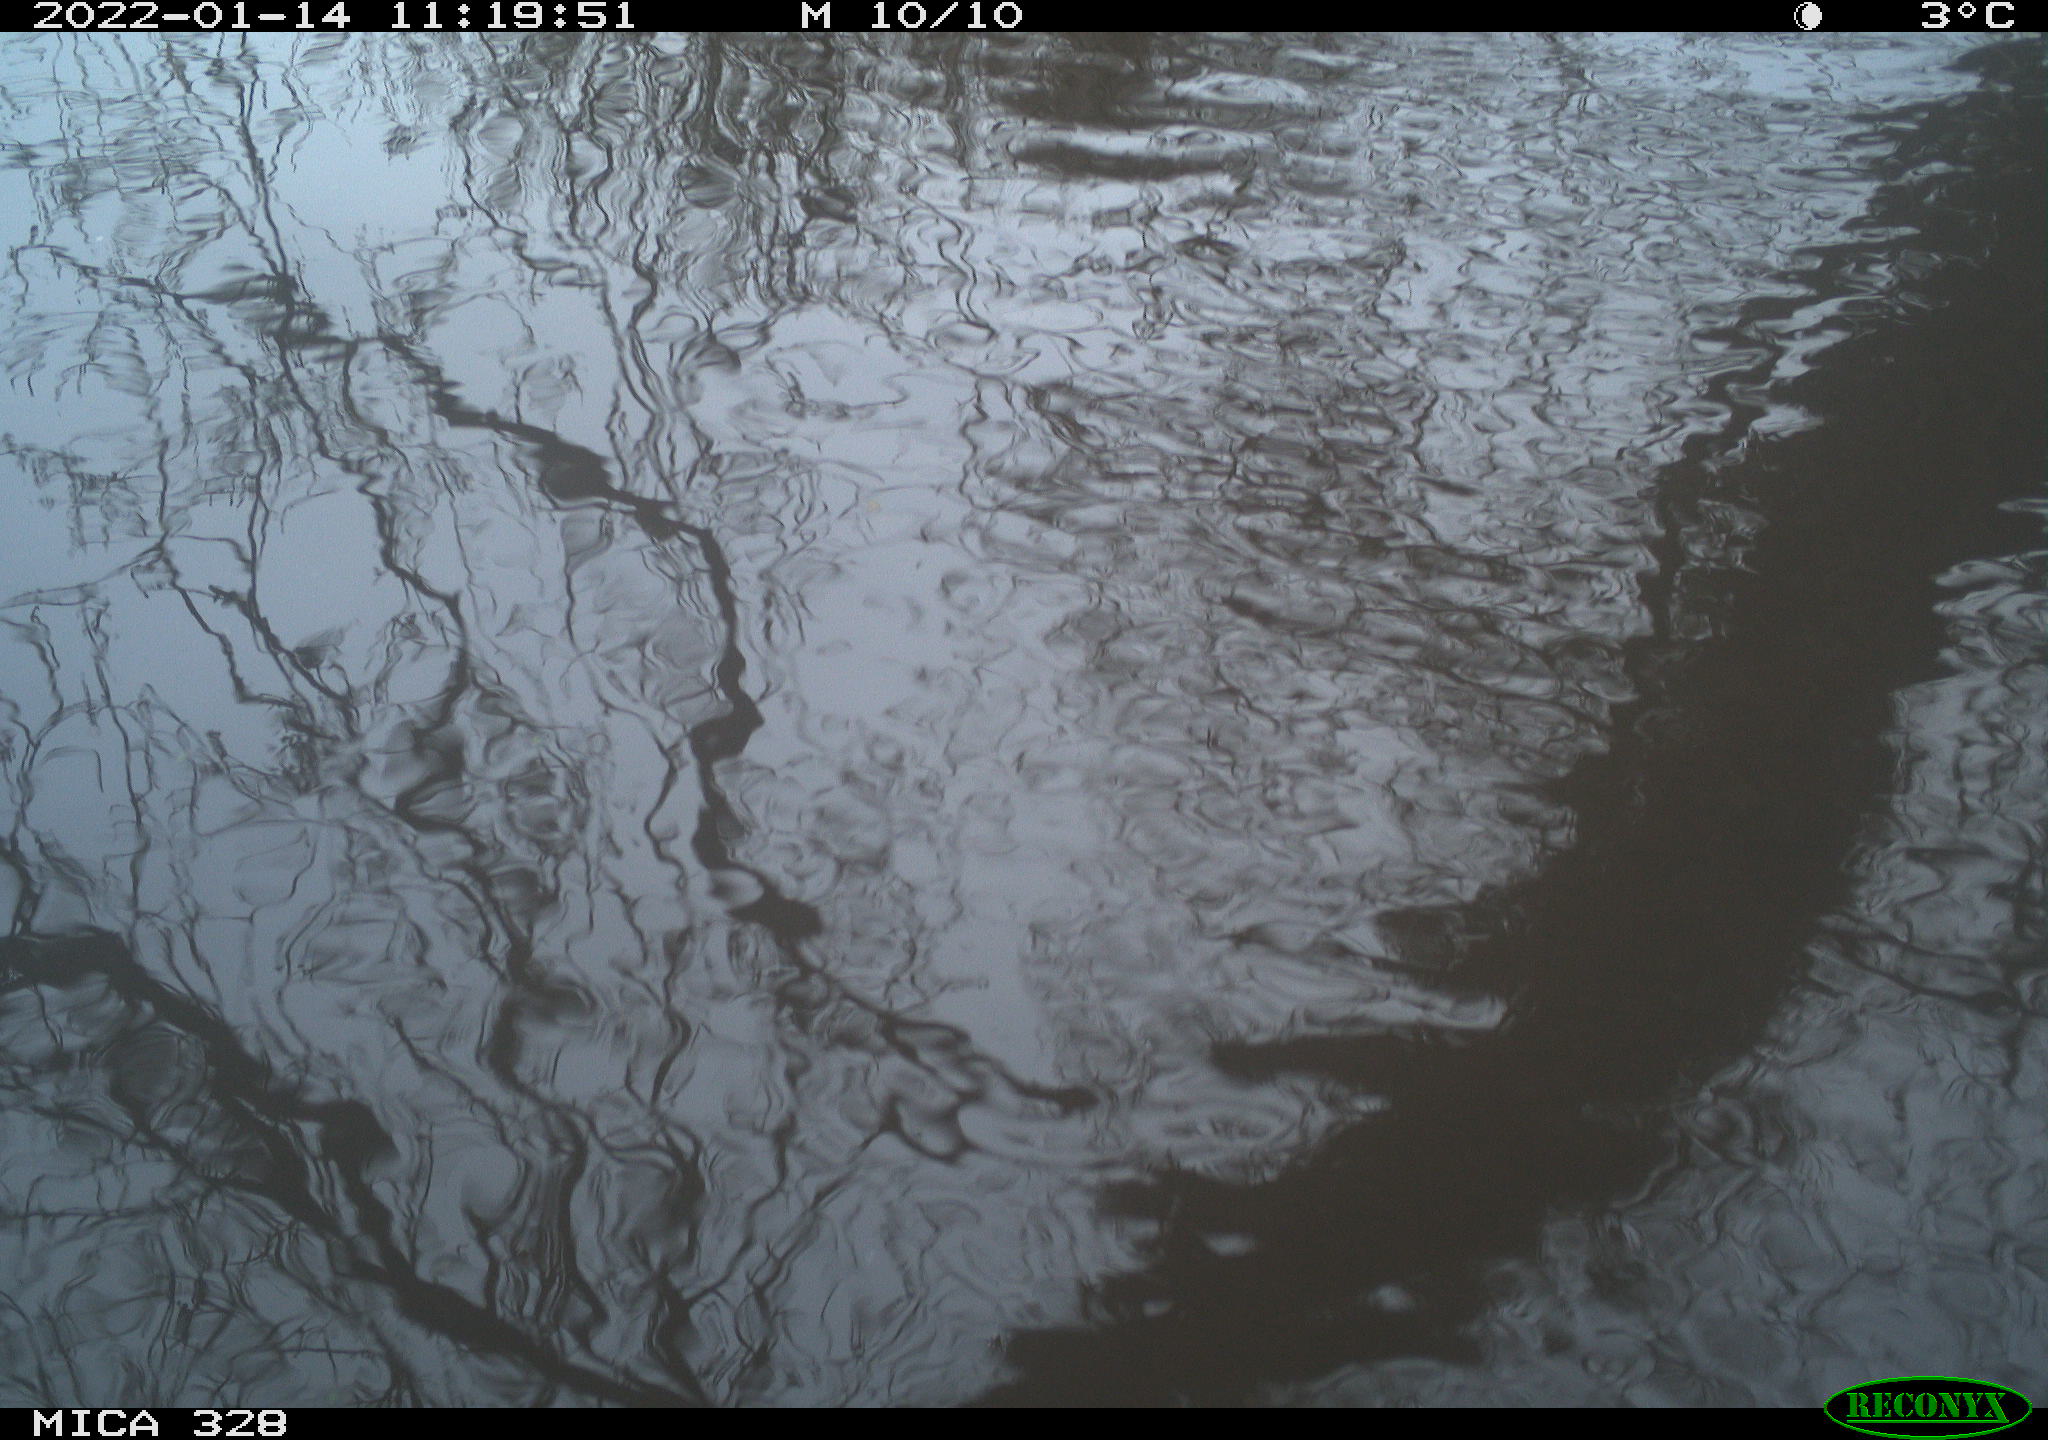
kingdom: Animalia
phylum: Chordata
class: Mammalia
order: Rodentia
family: Cricetidae
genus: Ondatra
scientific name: Ondatra zibethicus
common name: Muskrat
